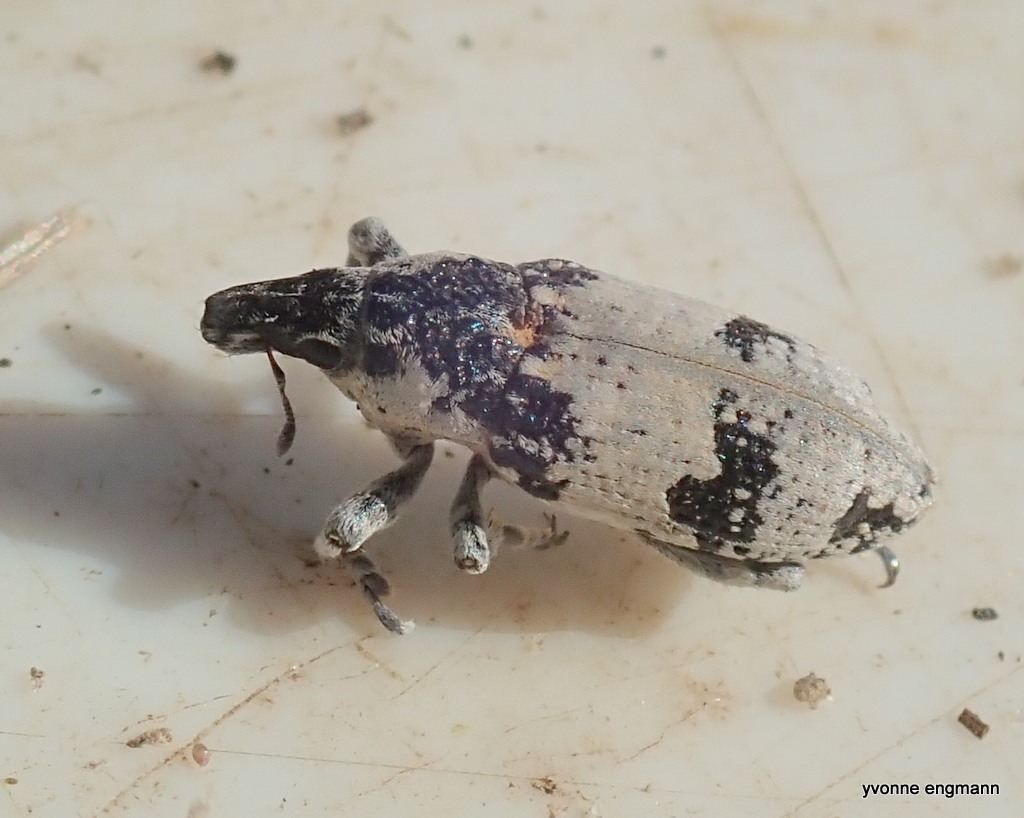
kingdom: Animalia
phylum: Arthropoda
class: Insecta
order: Coleoptera
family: Curculionidae
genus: Bothynoderes
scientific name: Bothynoderes affinis
